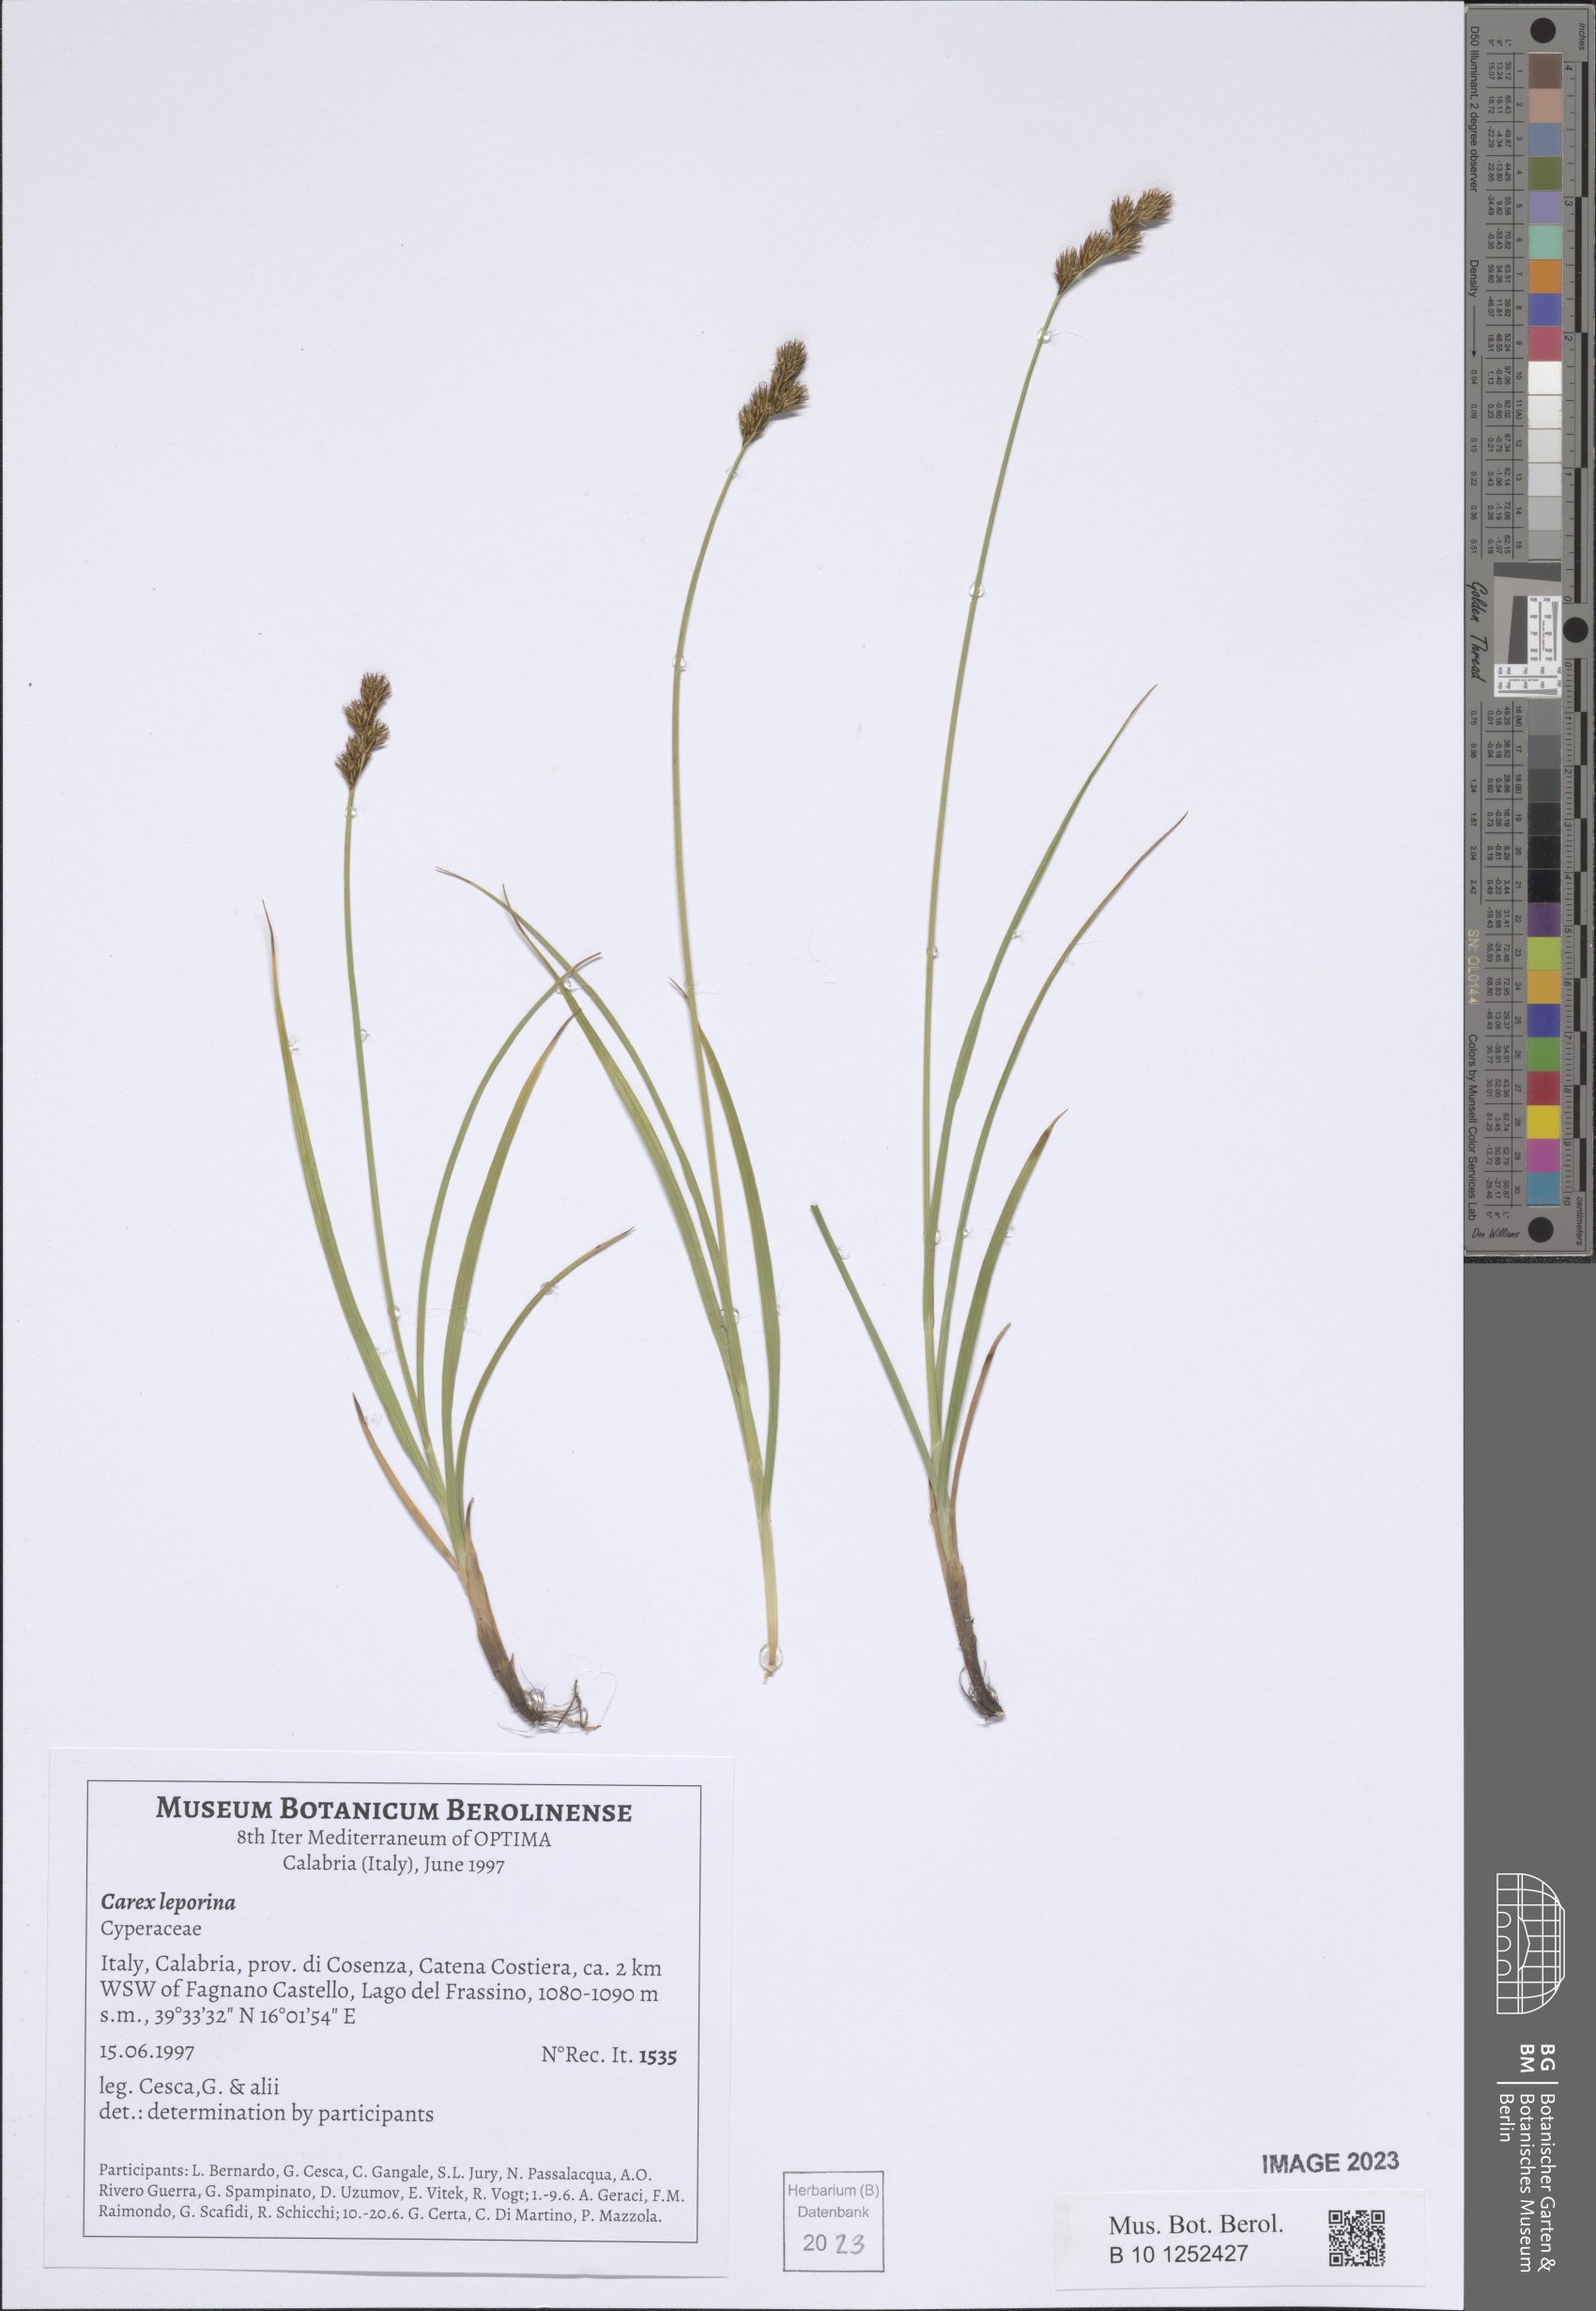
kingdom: Plantae
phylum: Tracheophyta
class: Liliopsida
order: Poales
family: Cyperaceae
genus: Carex
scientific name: Carex leporina
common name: Oval sedge
